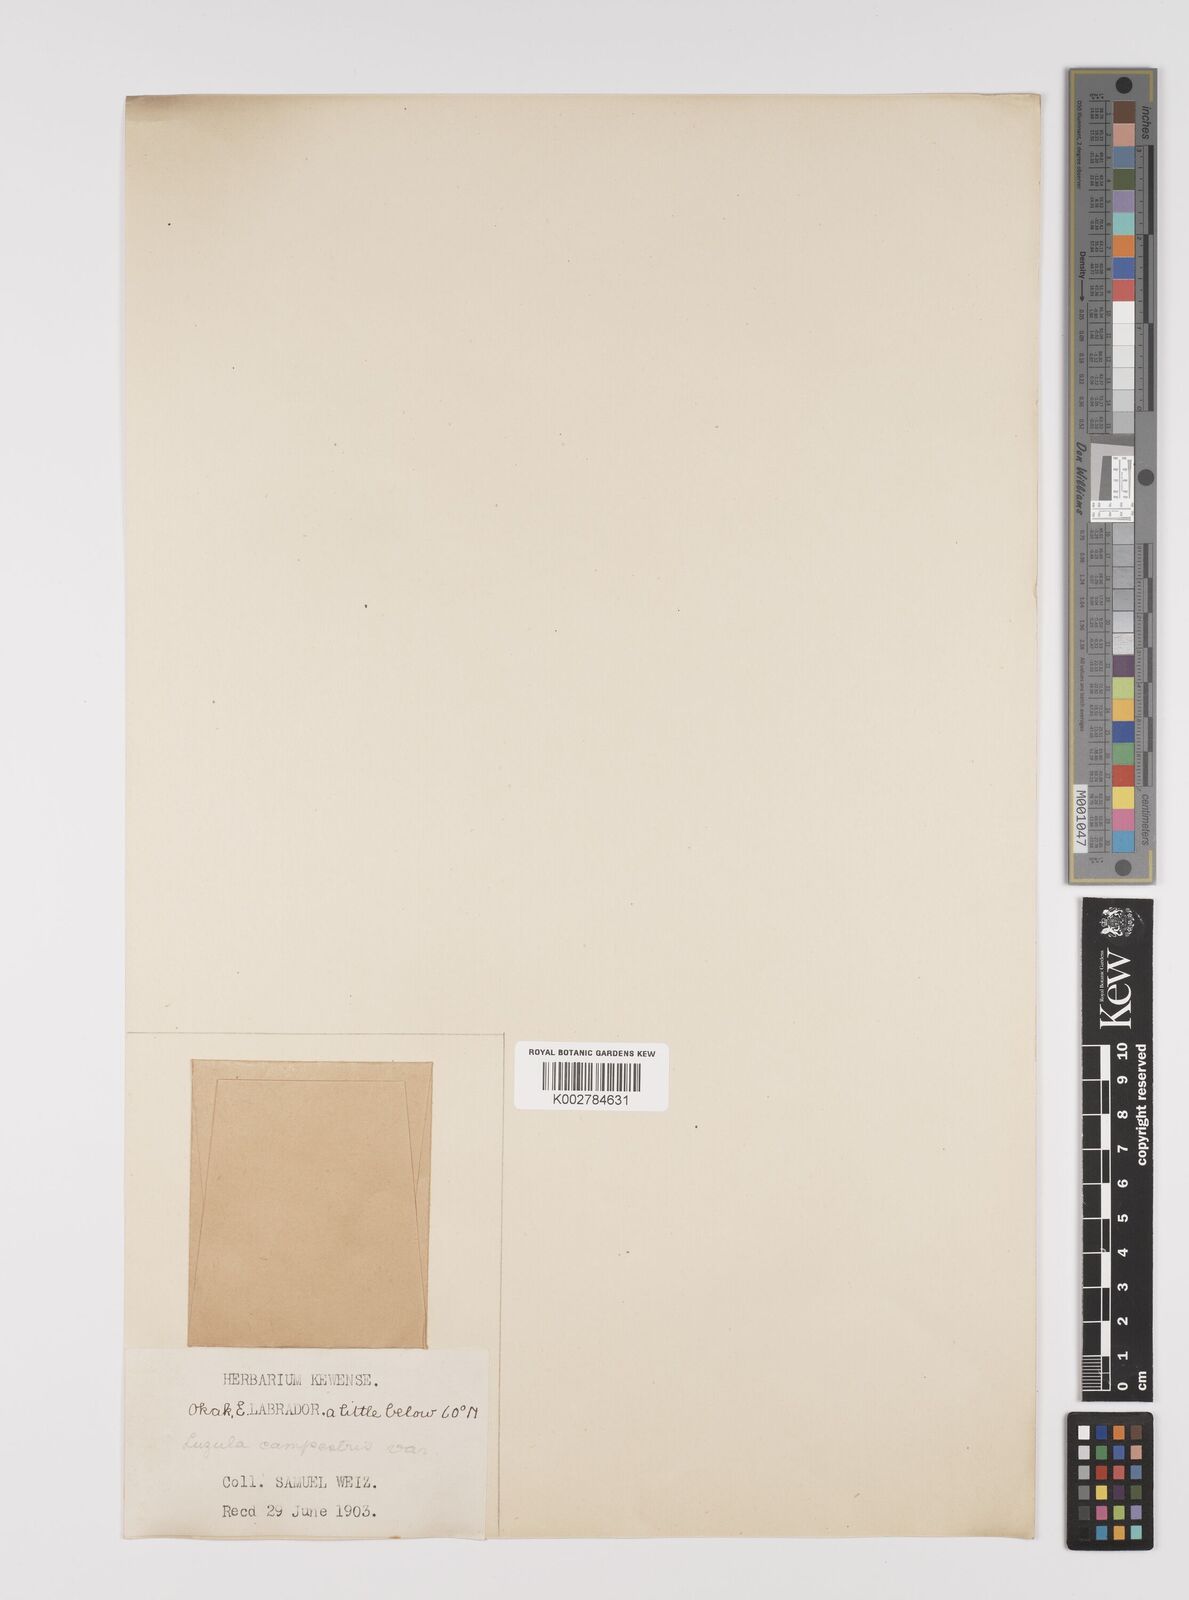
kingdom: Plantae
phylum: Tracheophyta
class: Liliopsida
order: Poales
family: Juncaceae
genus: Luzula
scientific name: Luzula campestris
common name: Field wood-rush
